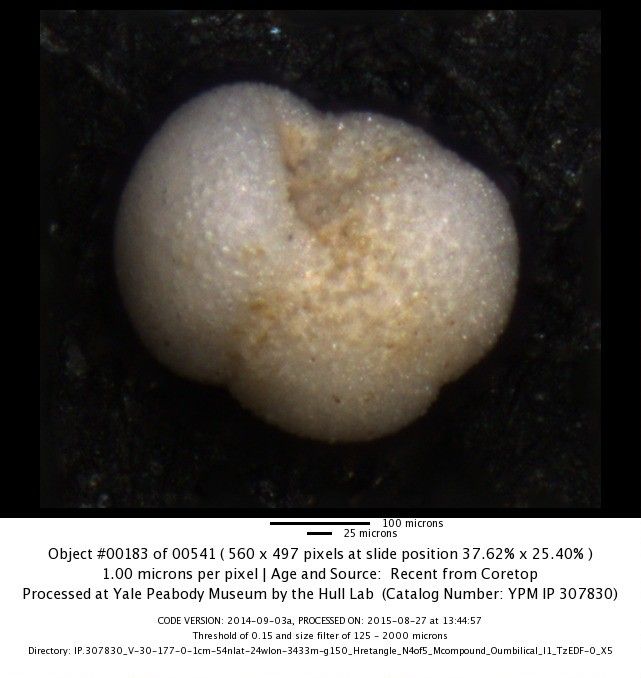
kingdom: Chromista
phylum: Foraminifera
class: Globothalamea
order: Rotaliida
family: Globorotaliidae
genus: Globoconella
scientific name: Globoconella inflata
